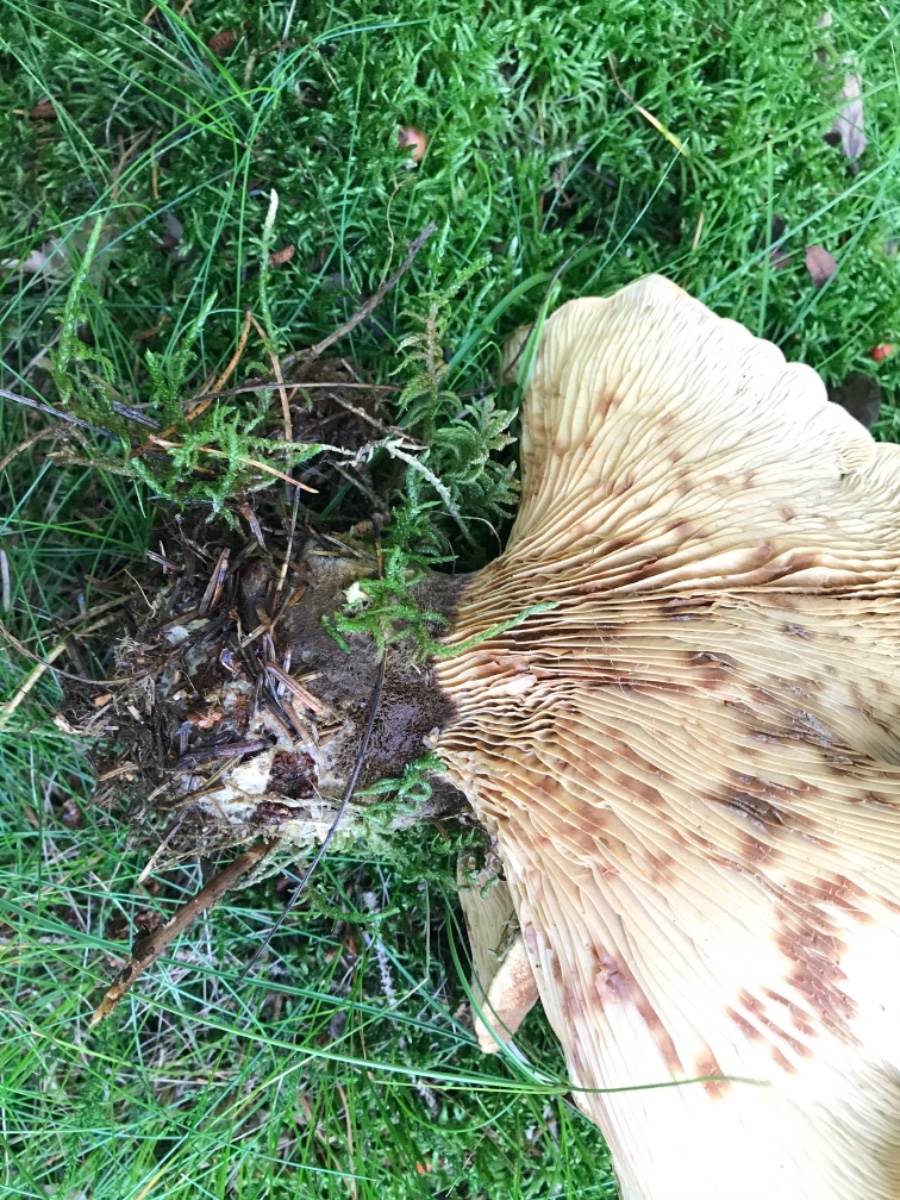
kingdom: Fungi
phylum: Basidiomycota
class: Agaricomycetes
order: Boletales
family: Tapinellaceae
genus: Tapinella
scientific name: Tapinella atrotomentosa
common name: sortfiltet viftesvamp
